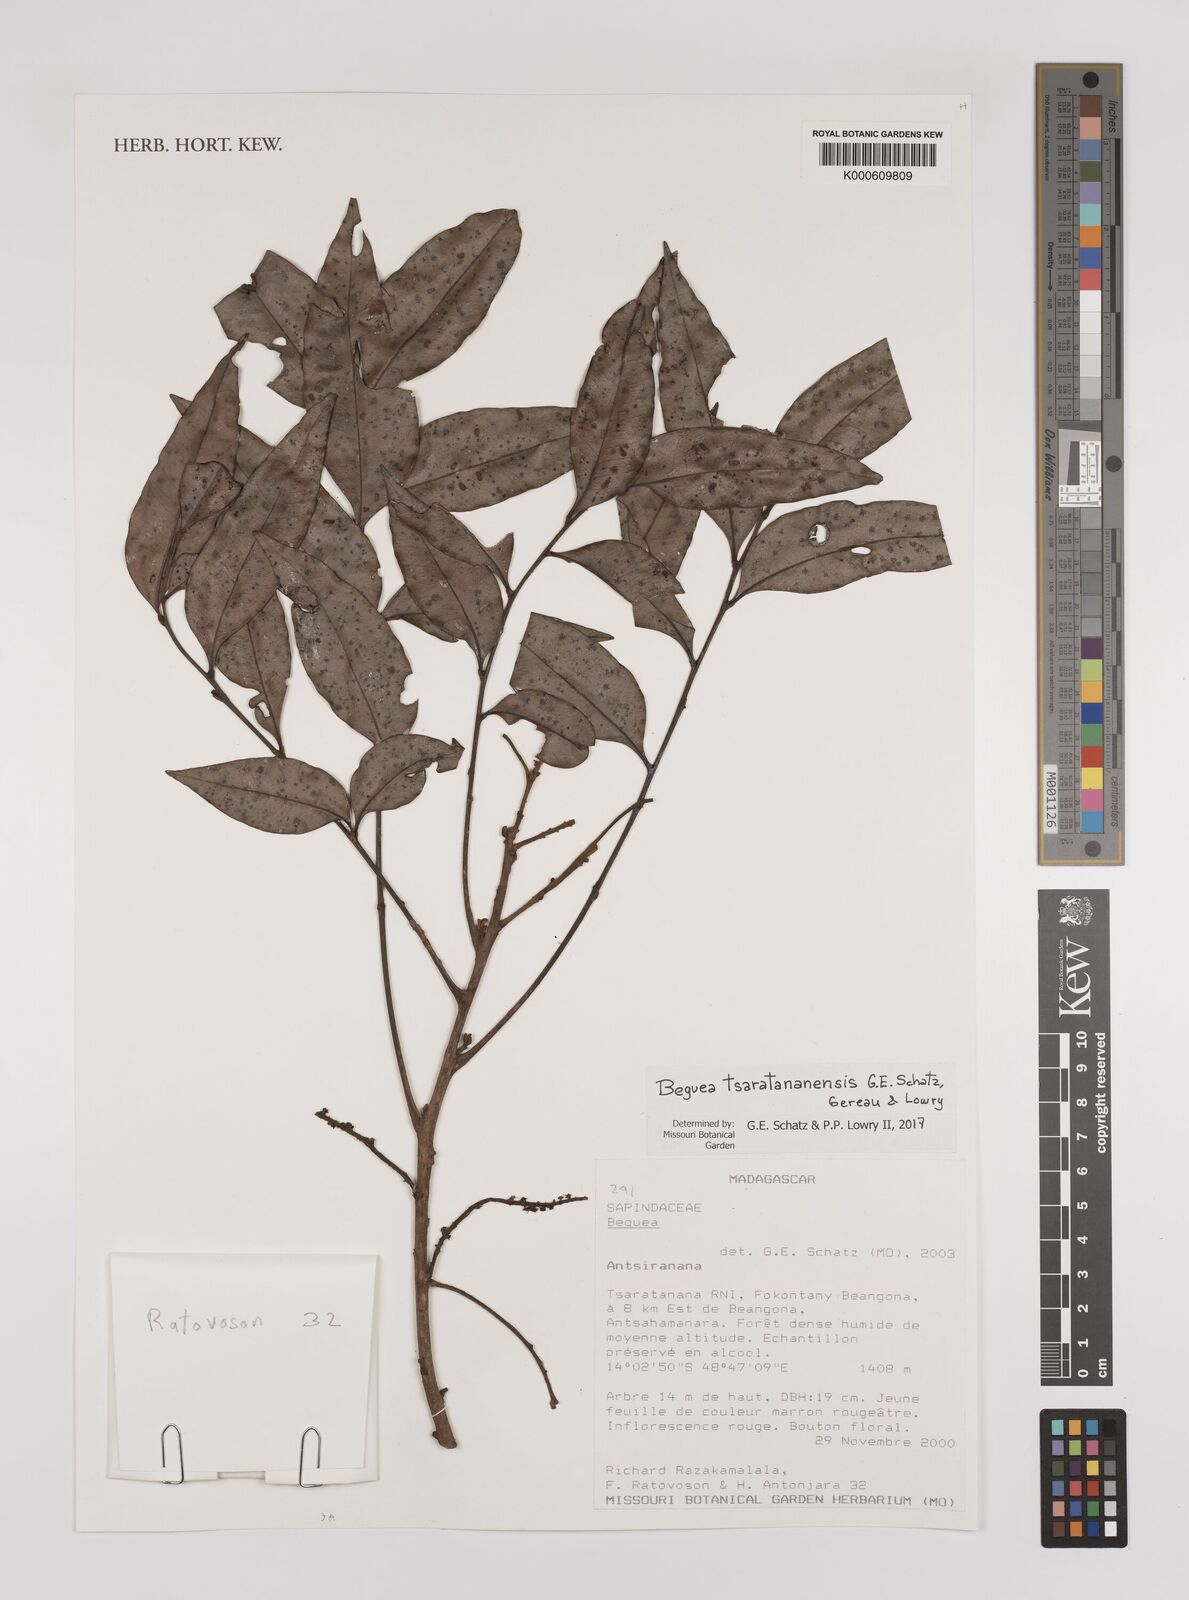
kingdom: Plantae
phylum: Tracheophyta
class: Magnoliopsida
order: Sapindales
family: Sapindaceae
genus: Beguea
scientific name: Beguea tsaratananensis
